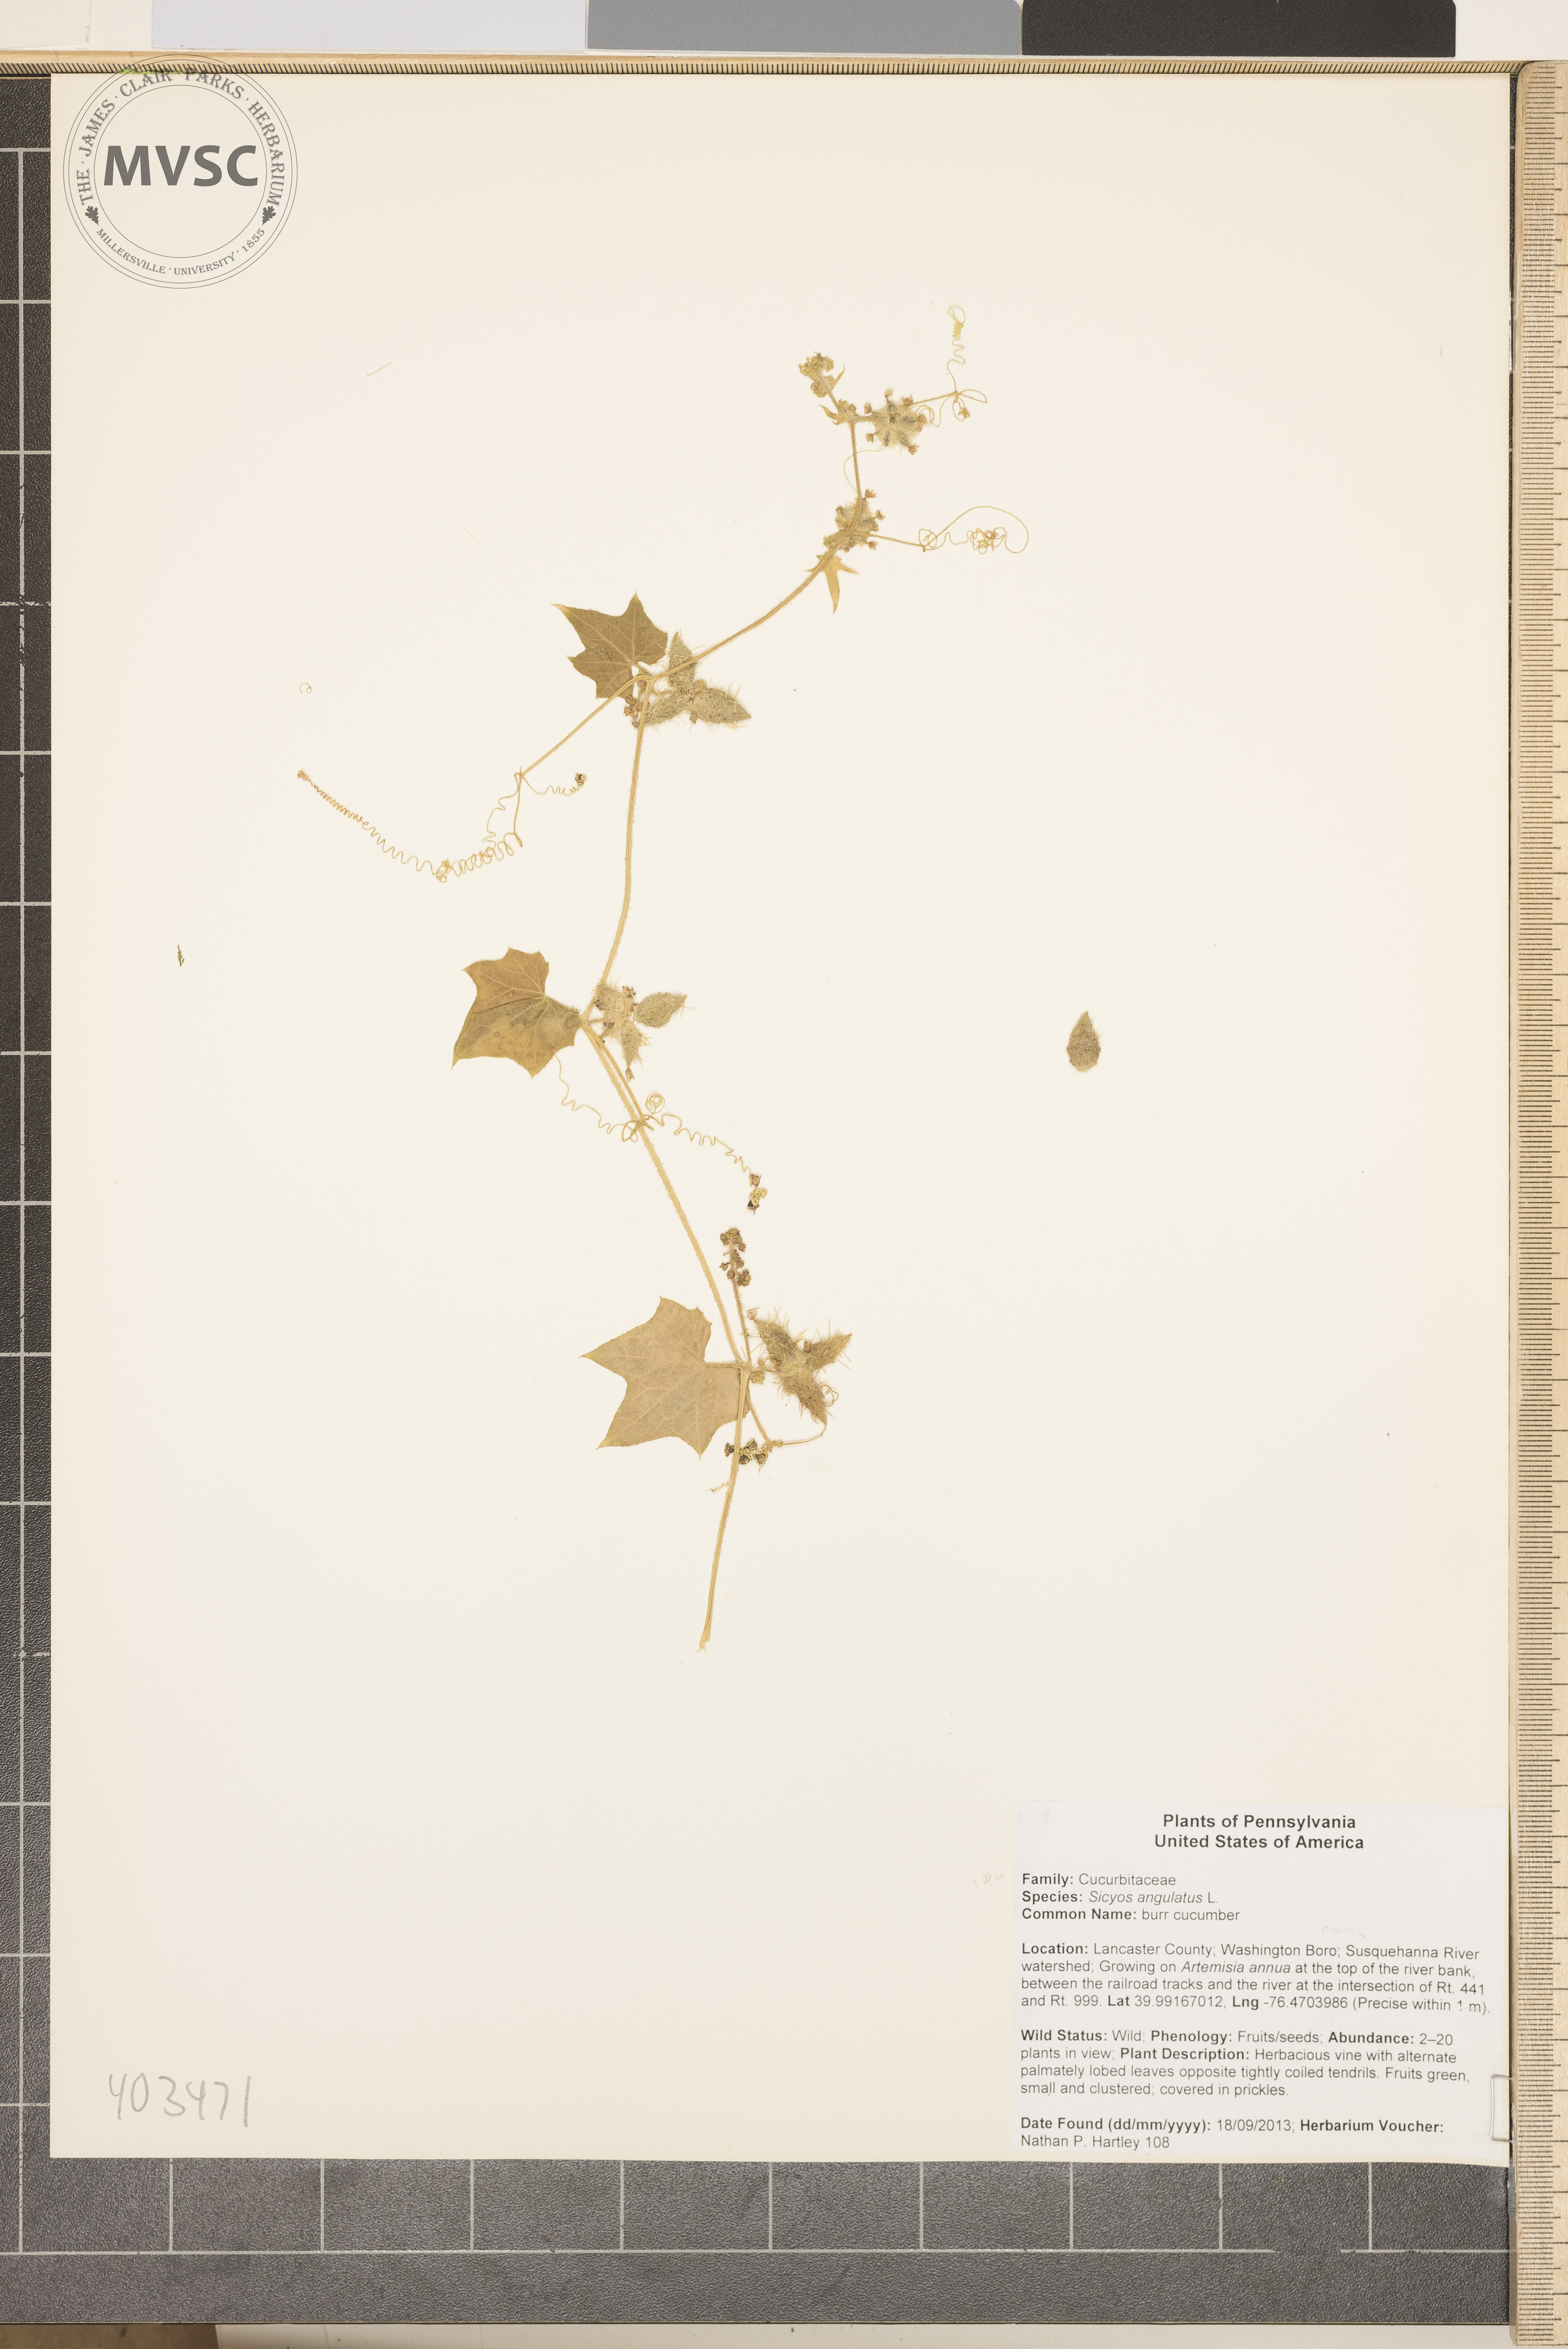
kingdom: Plantae
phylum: Tracheophyta
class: Magnoliopsida
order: Cucurbitales
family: Cucurbitaceae
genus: Sicyos
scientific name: Sicyos angulatus
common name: bur cucumber
